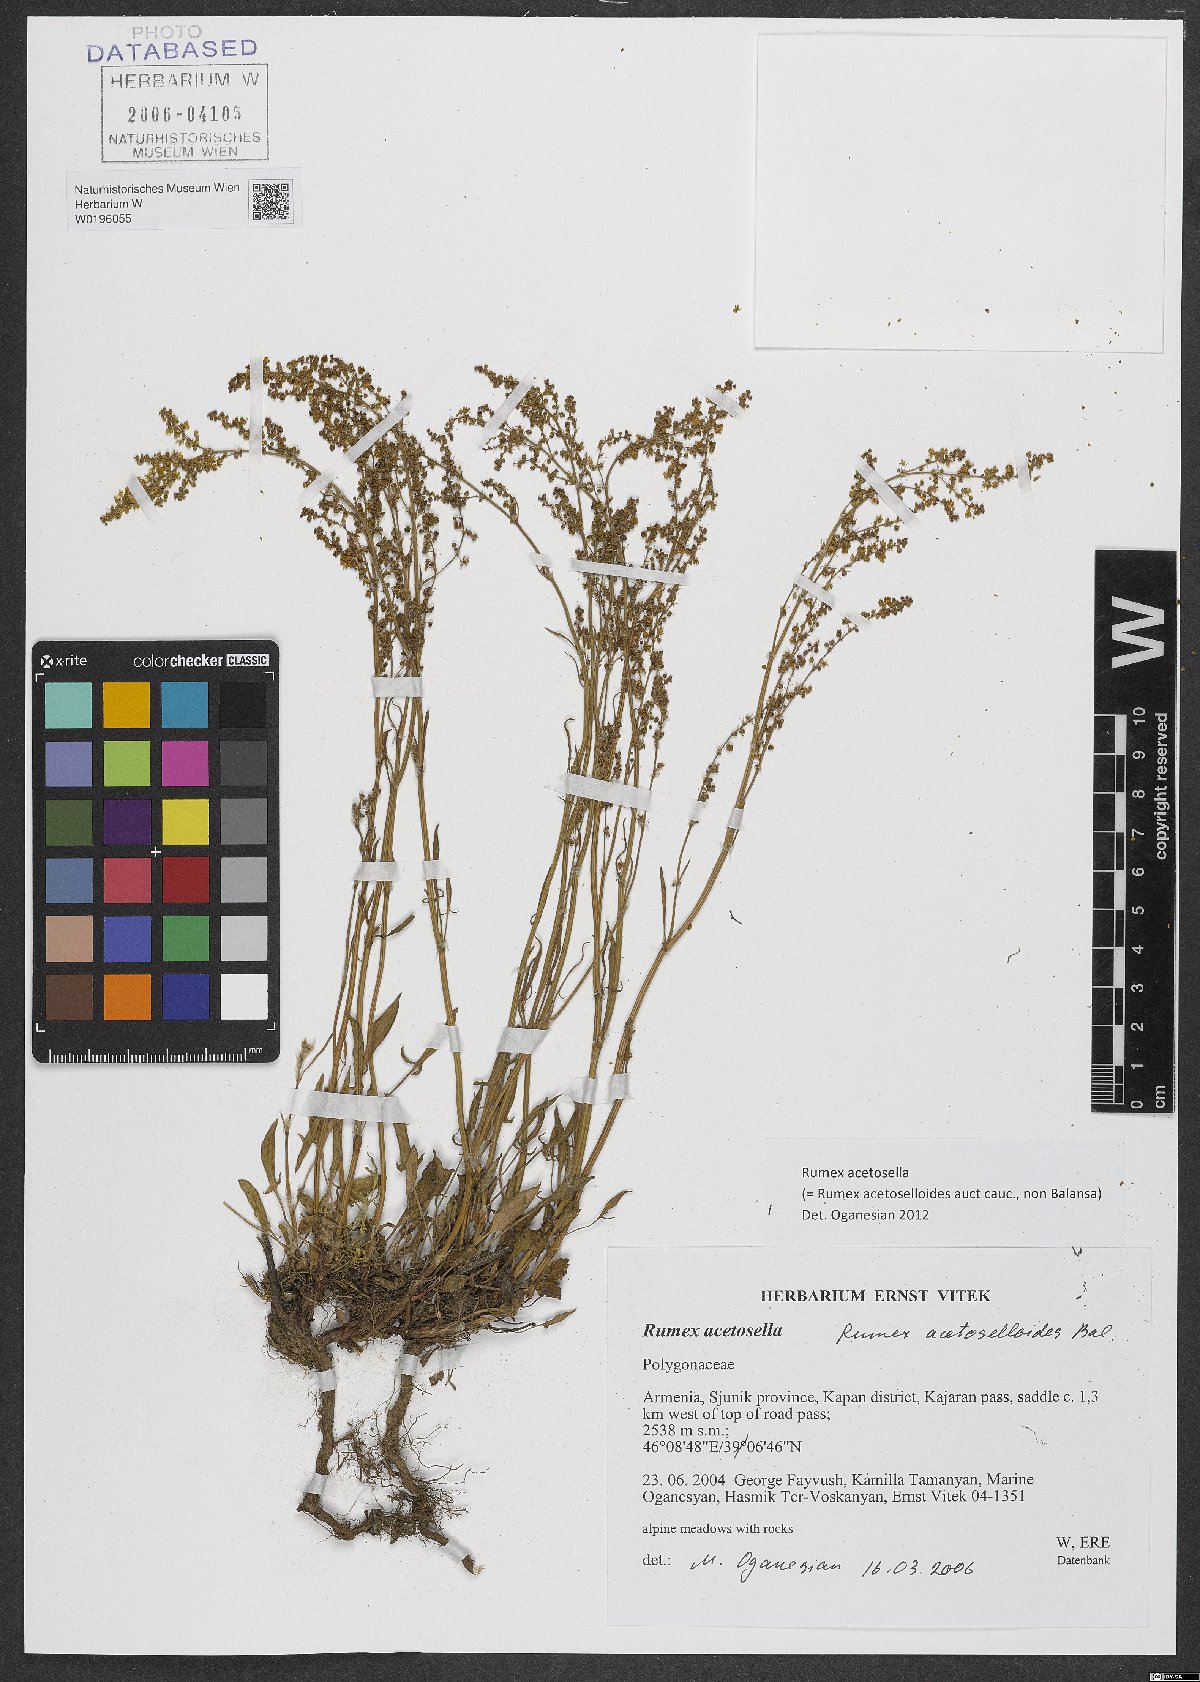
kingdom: Plantae
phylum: Tracheophyta
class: Magnoliopsida
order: Caryophyllales
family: Polygonaceae
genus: Rumex
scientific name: Rumex acetosella
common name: Common sheep sorrel
